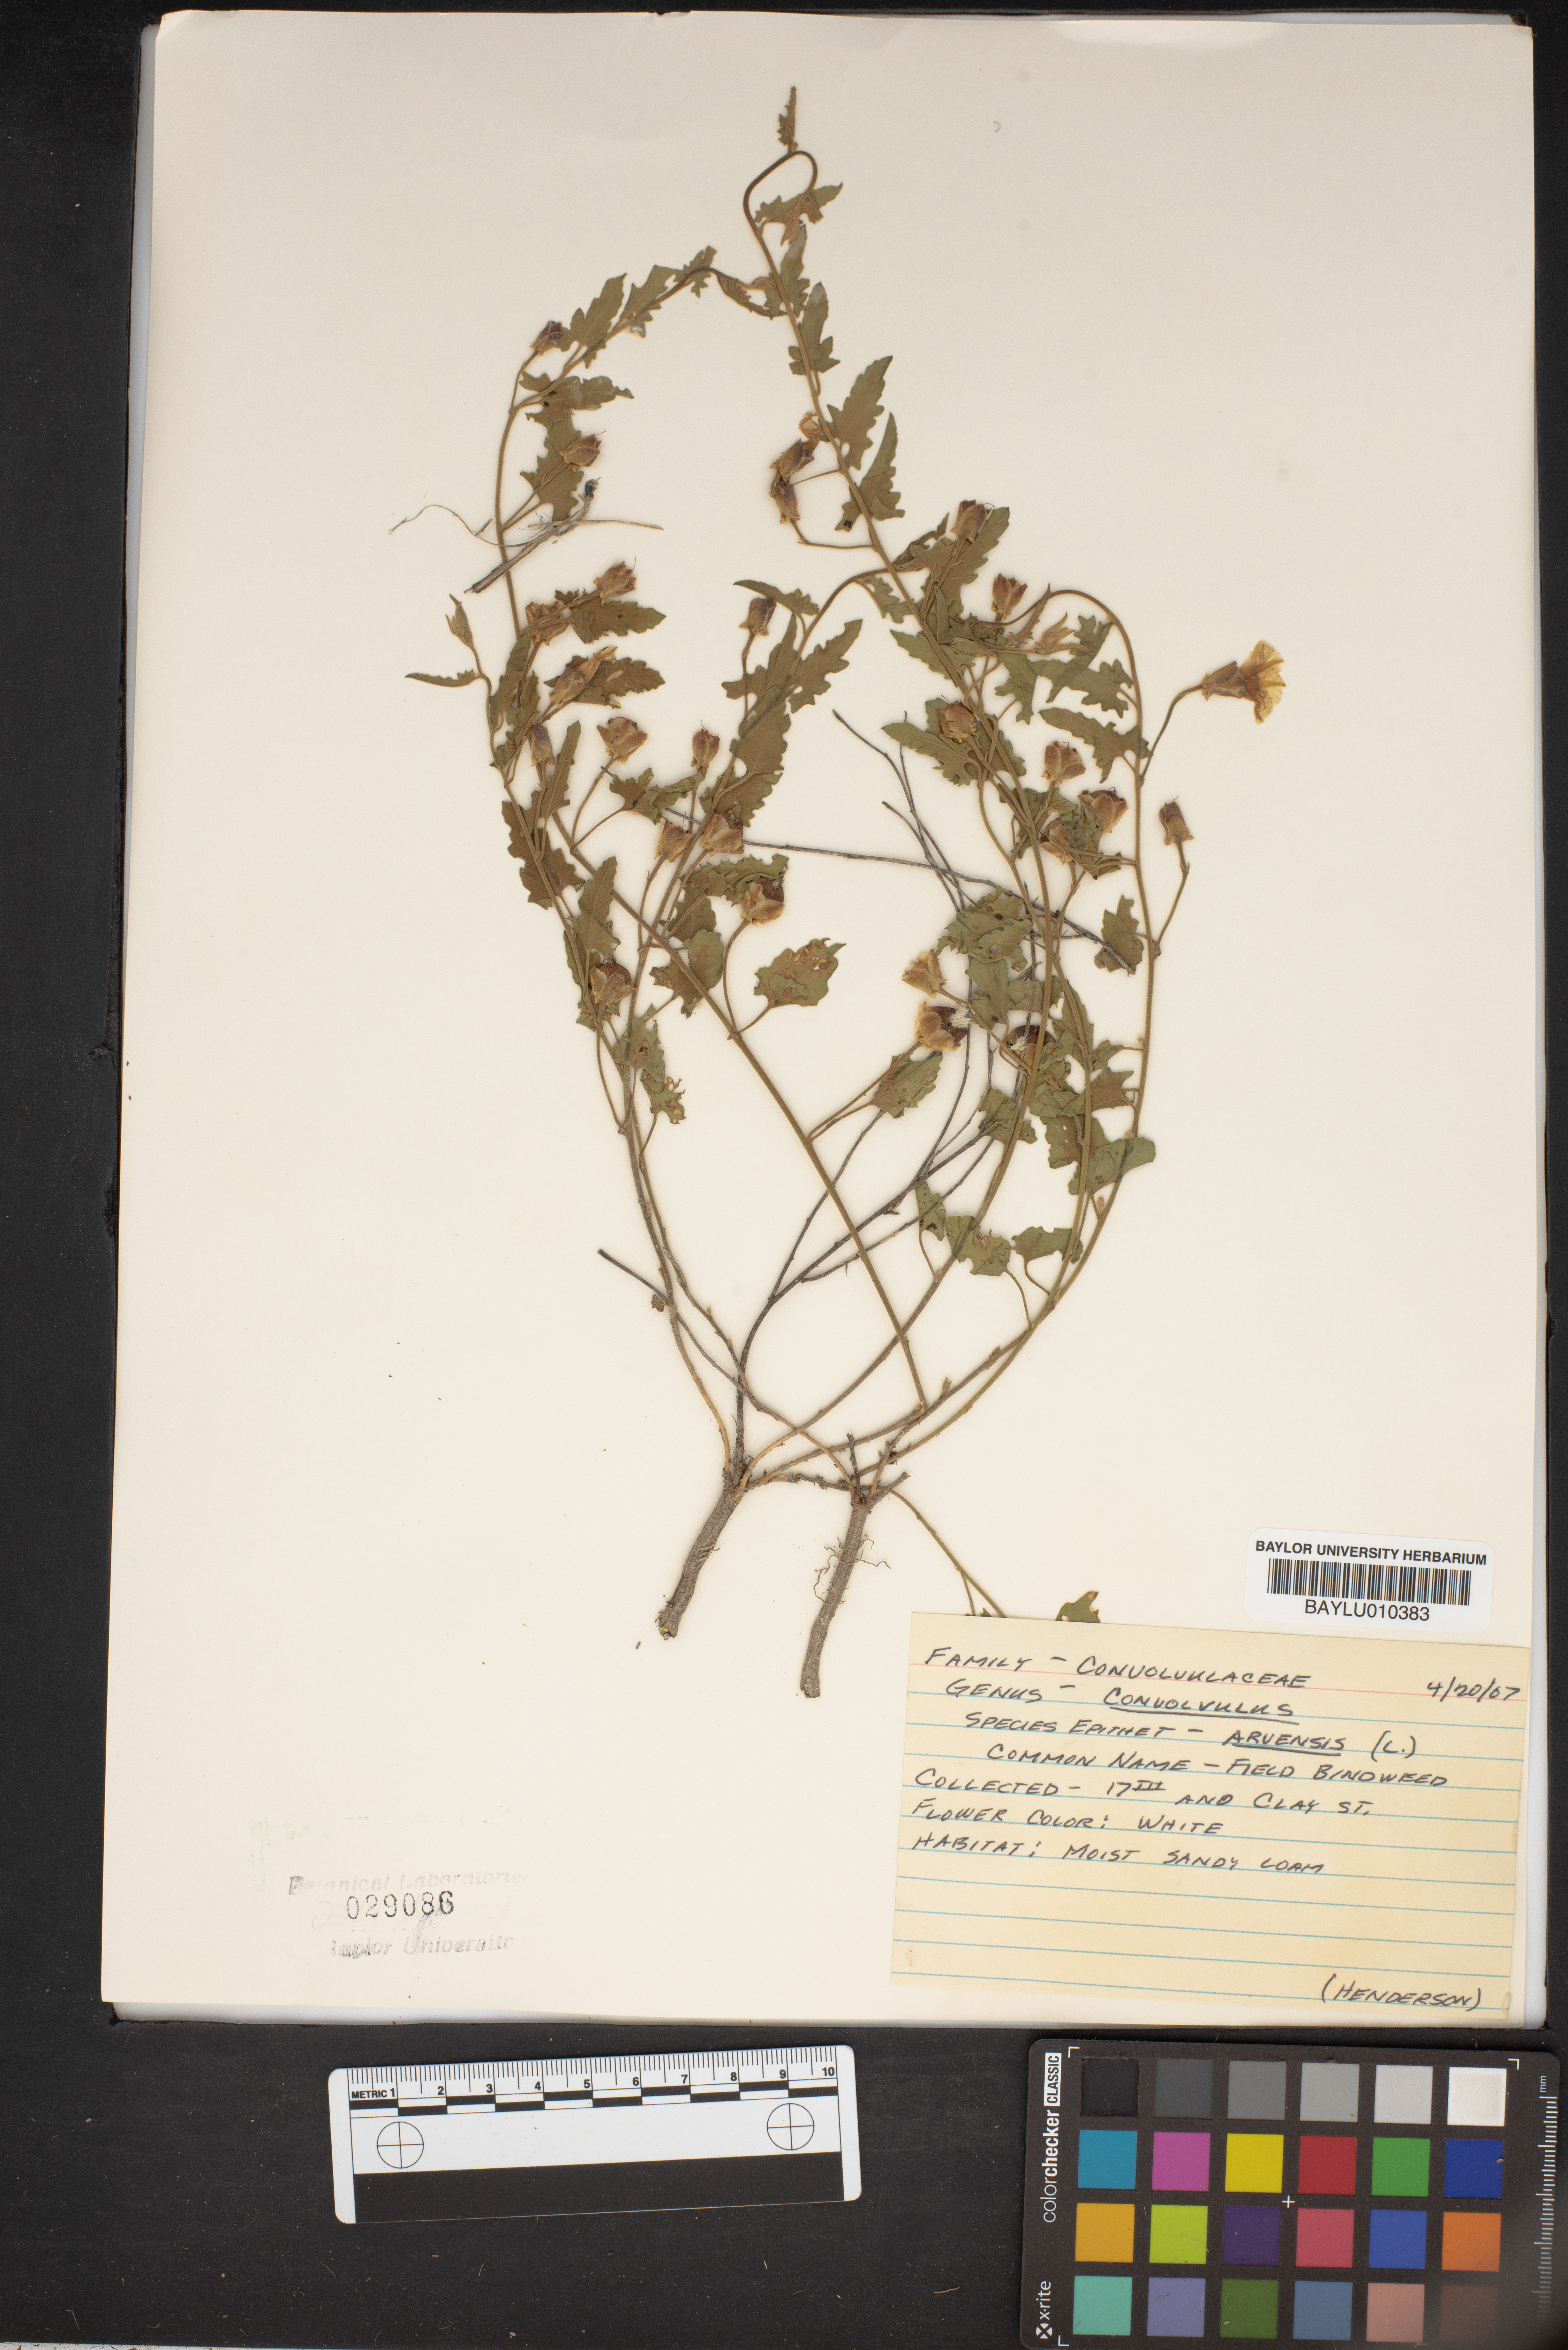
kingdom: Plantae
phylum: Tracheophyta
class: Magnoliopsida
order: Solanales
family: Convolvulaceae
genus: Convolvulus
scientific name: Convolvulus arvensis
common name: Field bindweed
